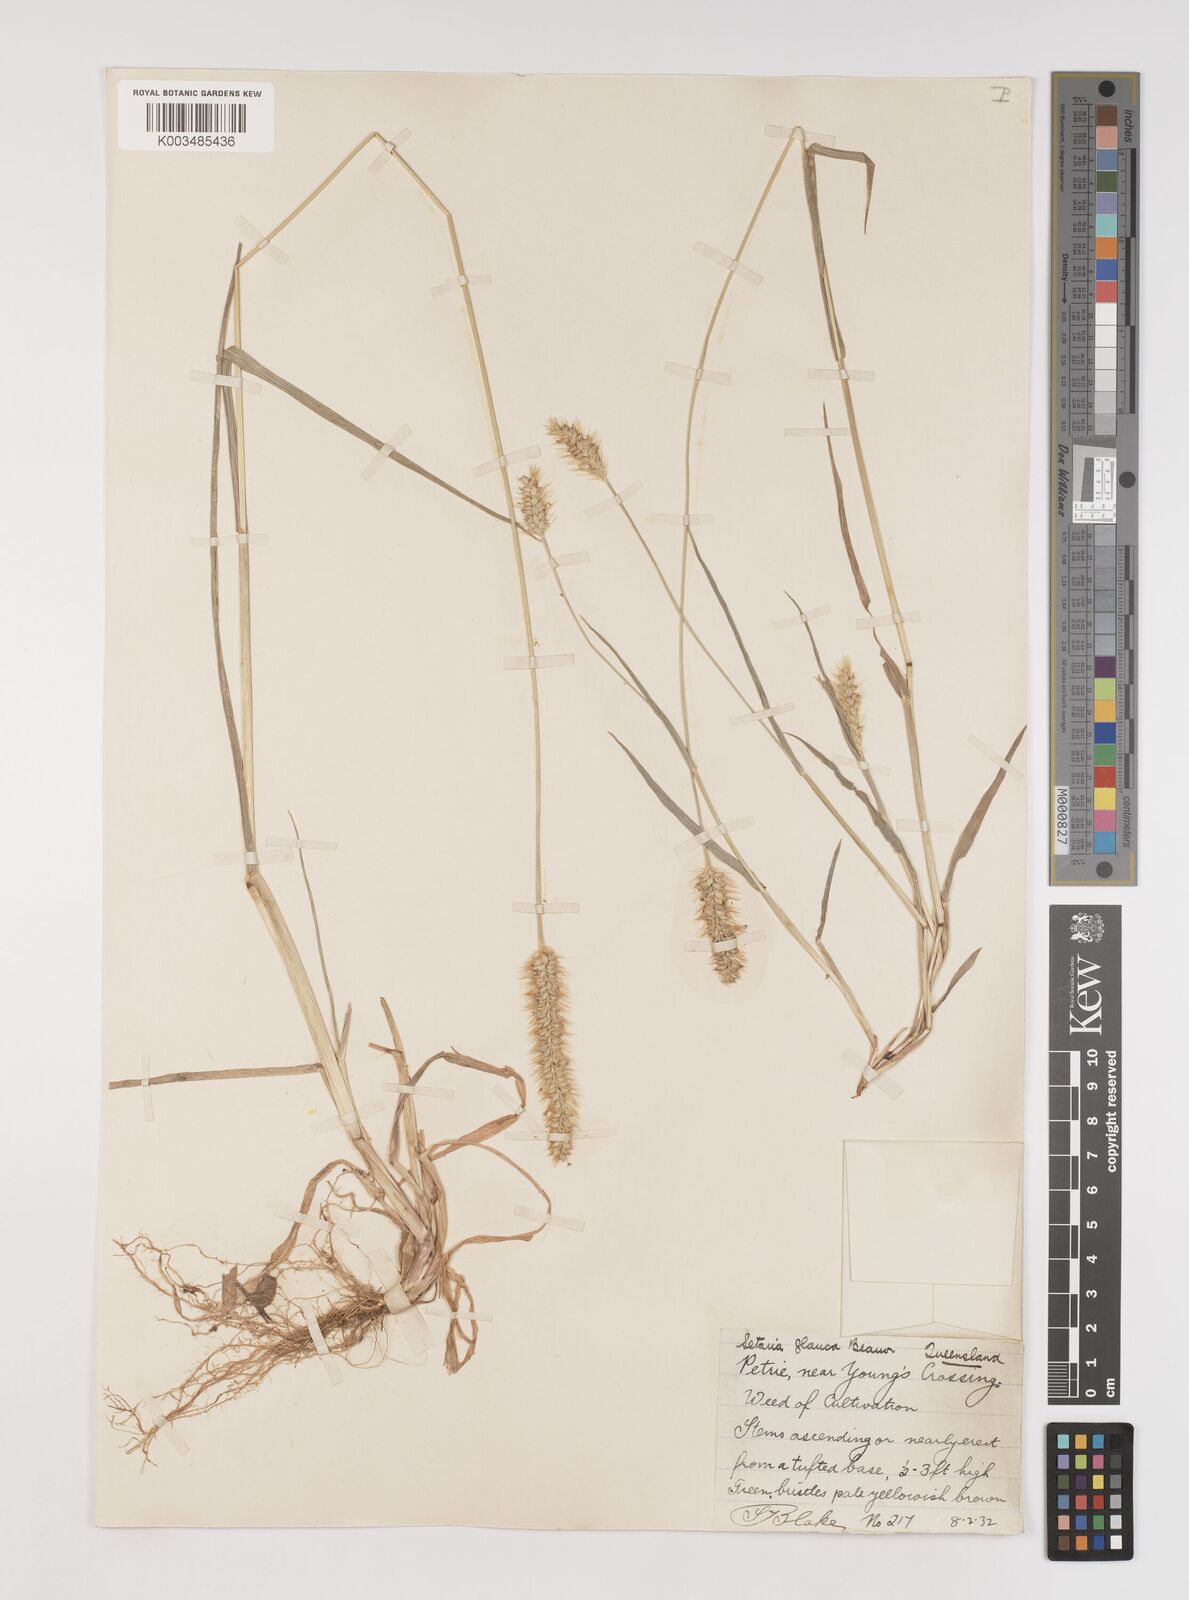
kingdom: Plantae
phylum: Tracheophyta
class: Liliopsida
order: Poales
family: Poaceae
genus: Setaria
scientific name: Setaria pumila
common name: Yellow bristle-grass
